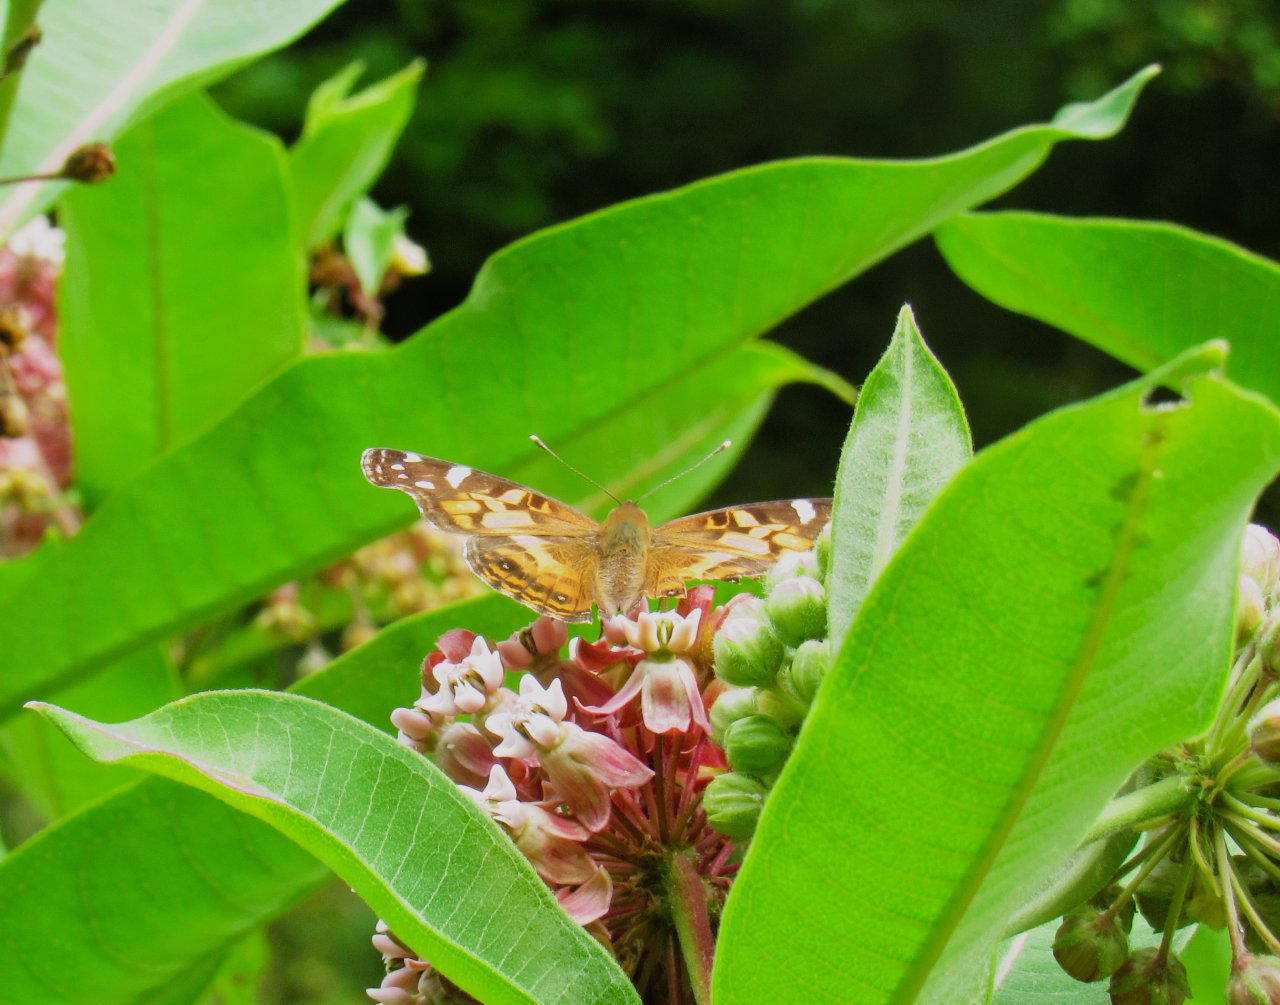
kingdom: Animalia
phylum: Arthropoda
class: Insecta
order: Lepidoptera
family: Nymphalidae
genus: Vanessa
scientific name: Vanessa virginiensis
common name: American Lady
